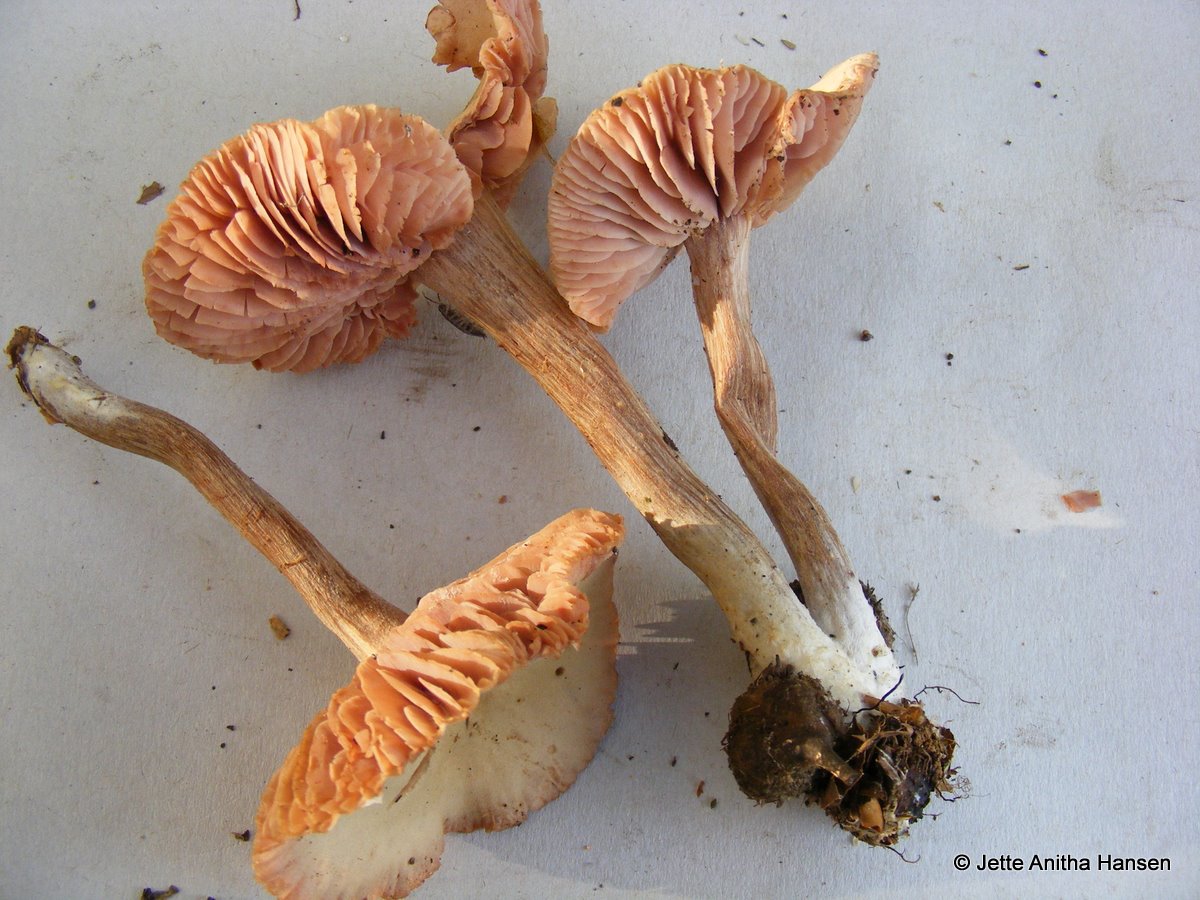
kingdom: Fungi
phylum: Basidiomycota
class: Agaricomycetes
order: Agaricales
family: Hydnangiaceae
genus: Laccaria
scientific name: Laccaria proxima
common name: stor ametysthat
